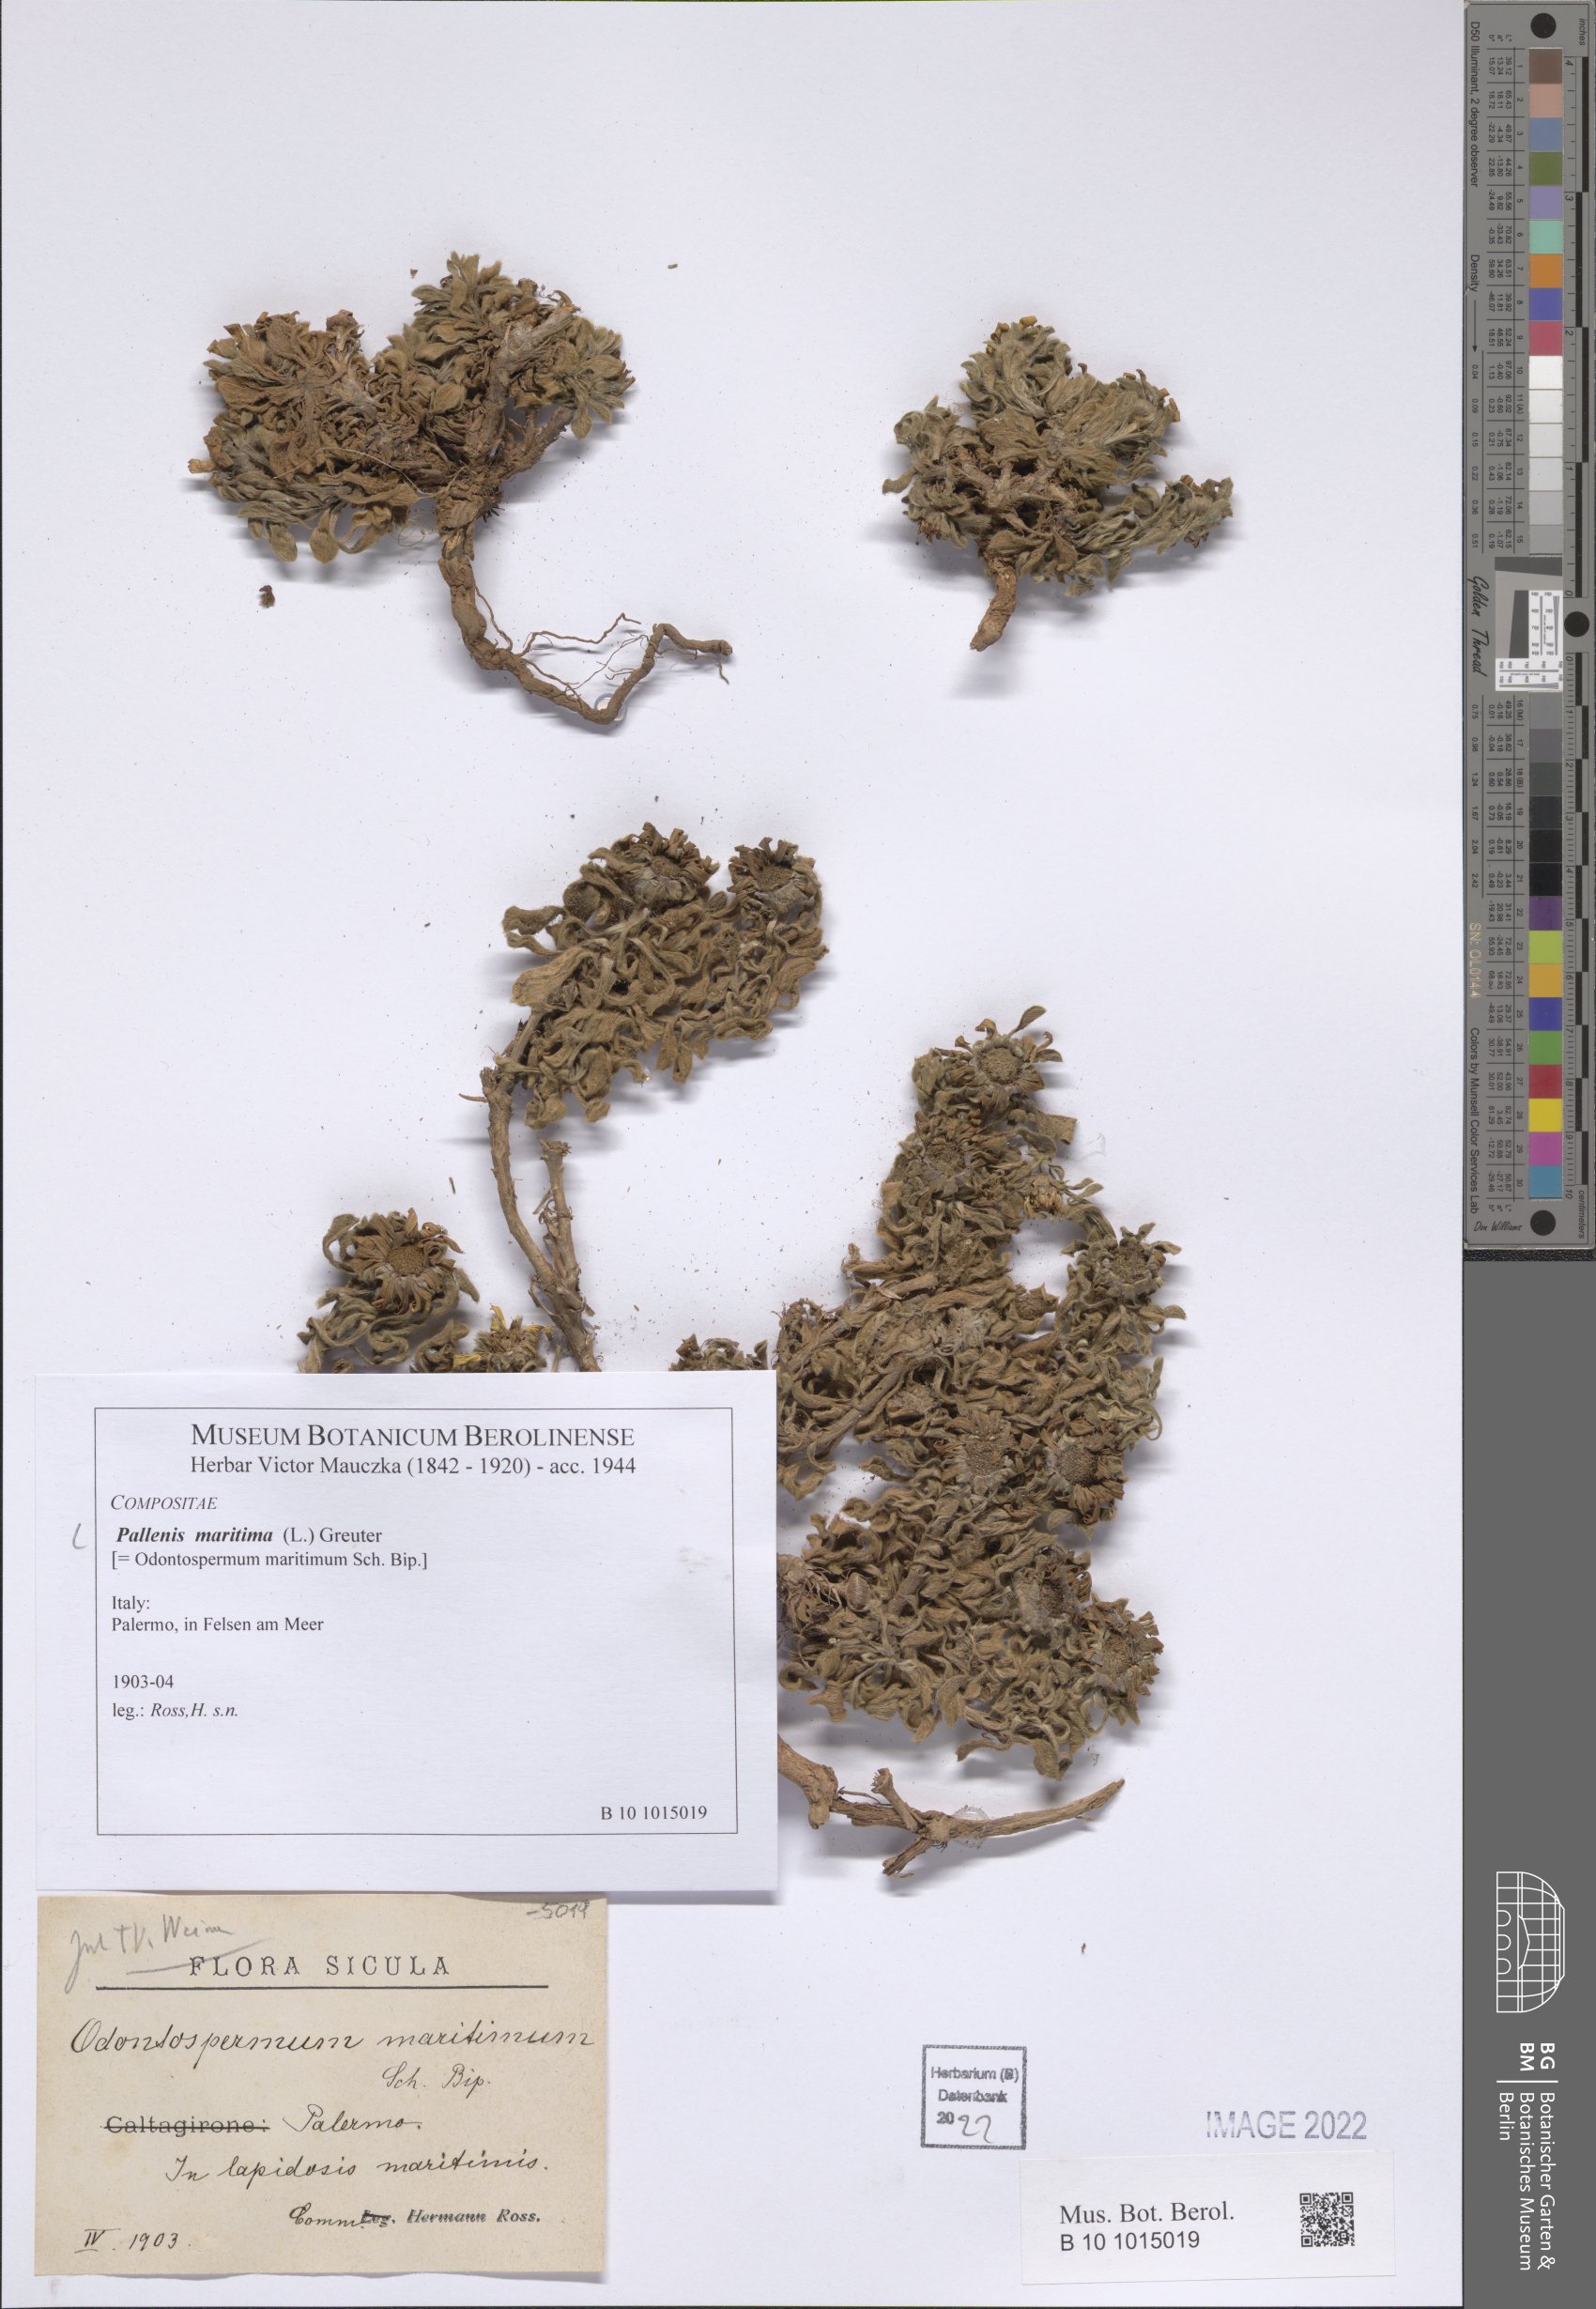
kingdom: Plantae
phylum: Tracheophyta
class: Magnoliopsida
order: Asterales
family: Asteraceae
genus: Pallenis
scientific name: Pallenis maritima
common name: Golden coin daisy
